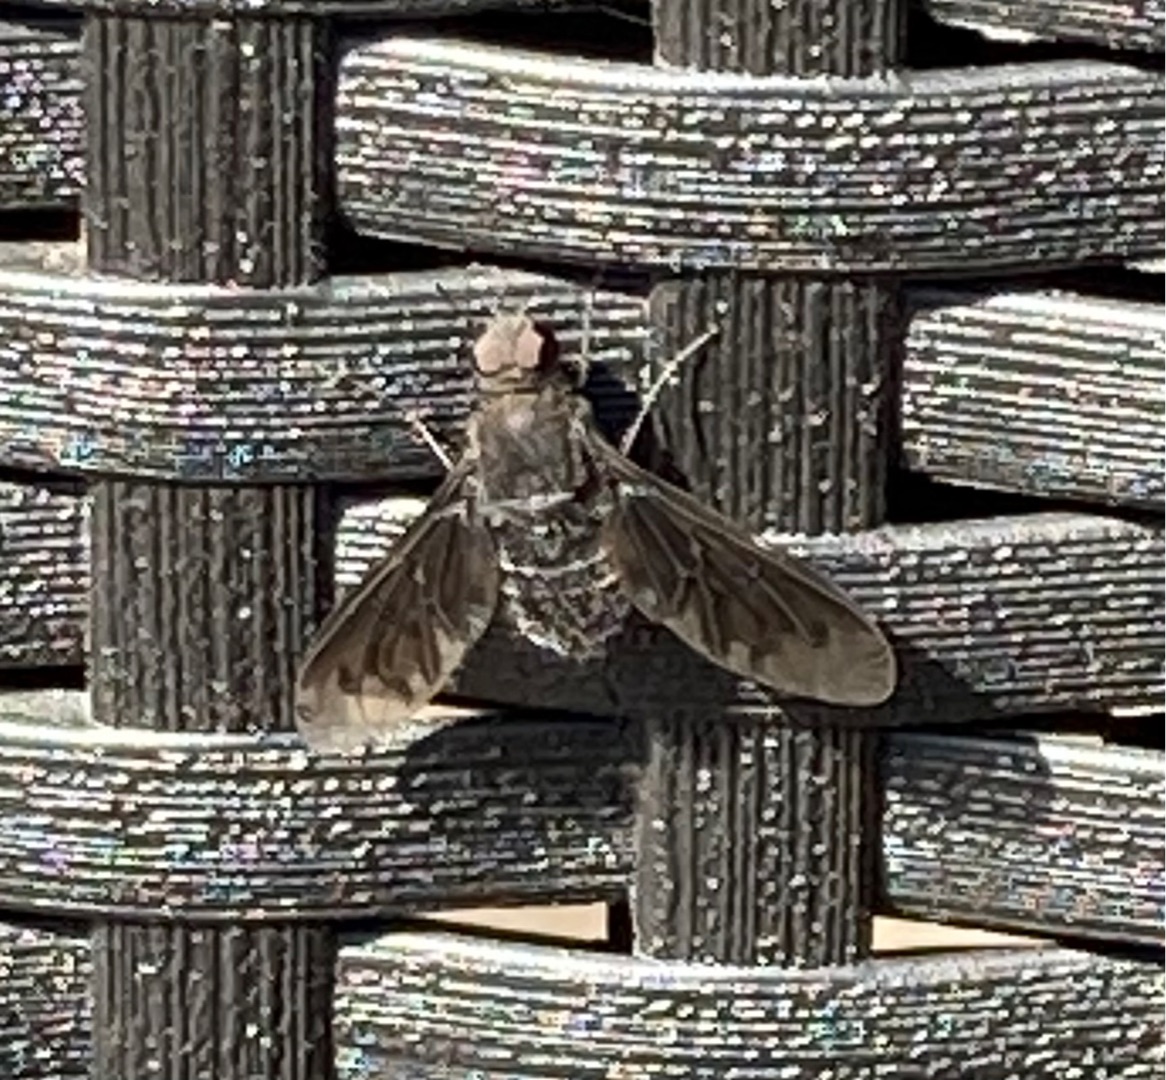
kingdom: Animalia
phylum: Arthropoda
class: Insecta
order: Diptera
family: Bombyliidae
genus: Anthrax
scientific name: Anthrax anthrax
